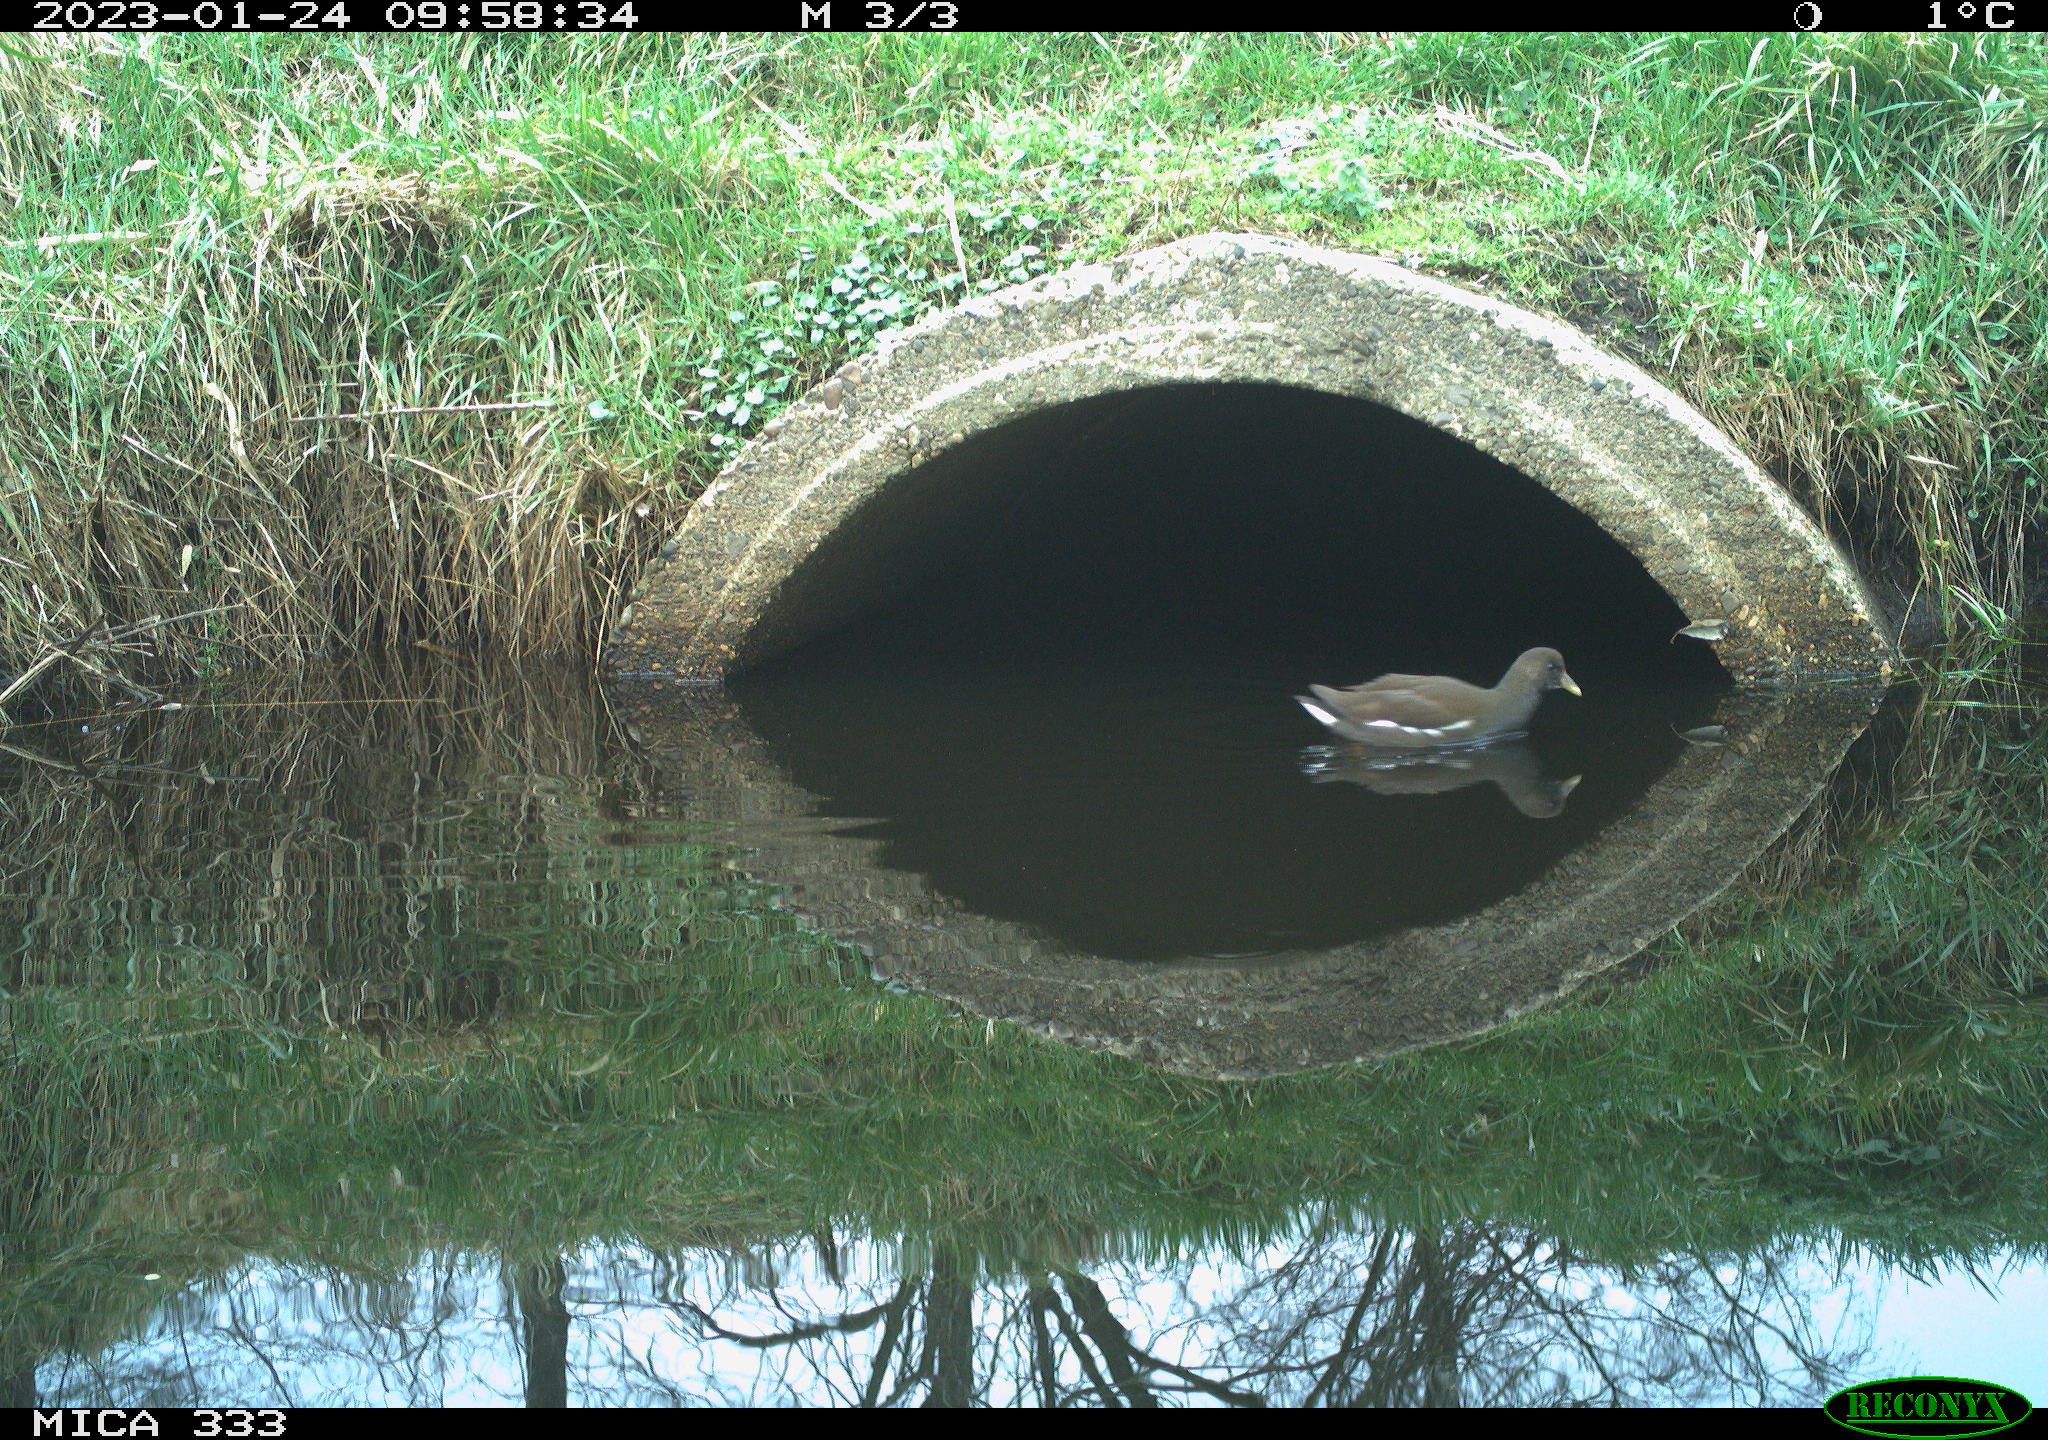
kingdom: Animalia
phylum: Chordata
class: Aves
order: Gruiformes
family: Rallidae
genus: Gallinula
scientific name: Gallinula chloropus
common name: Common moorhen
